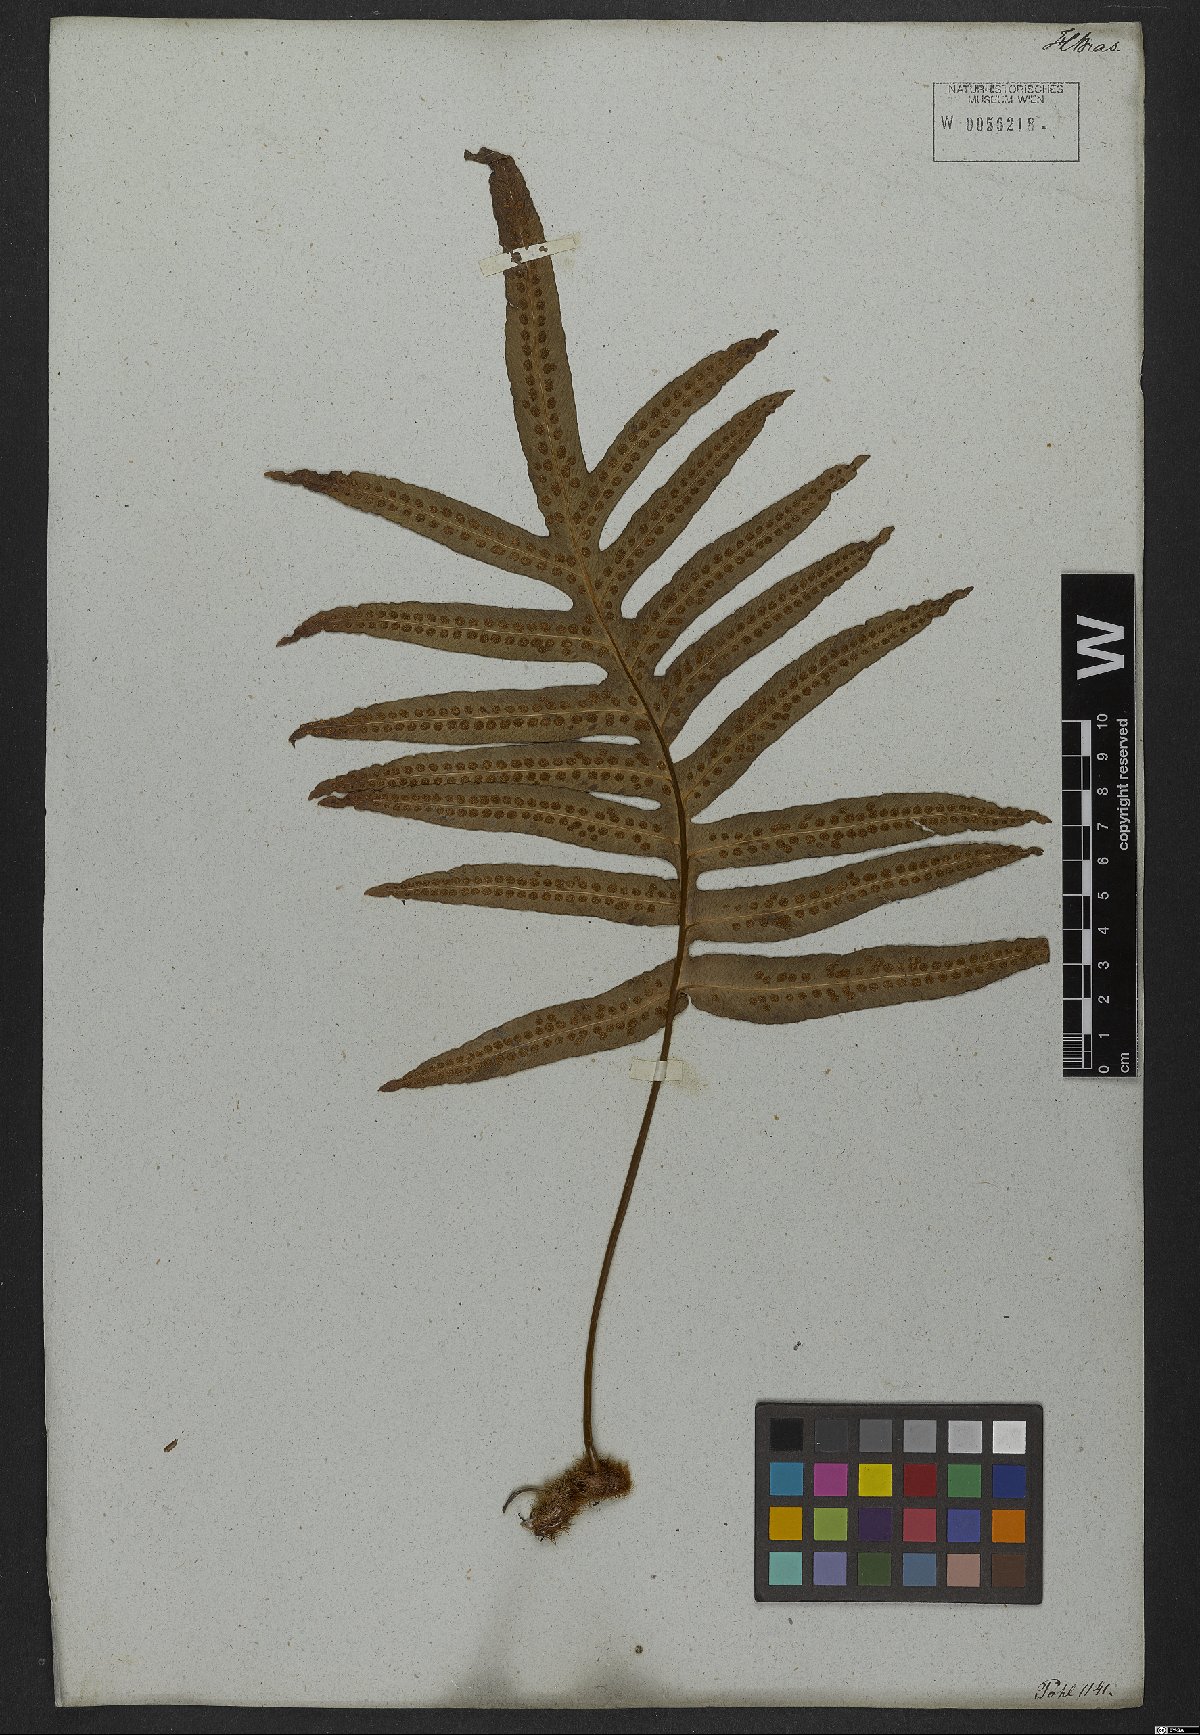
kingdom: Plantae
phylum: Tracheophyta
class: Polypodiopsida
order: Polypodiales
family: Polypodiaceae
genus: Phlebodium
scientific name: Phlebodium decumanum
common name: Golden polypod
